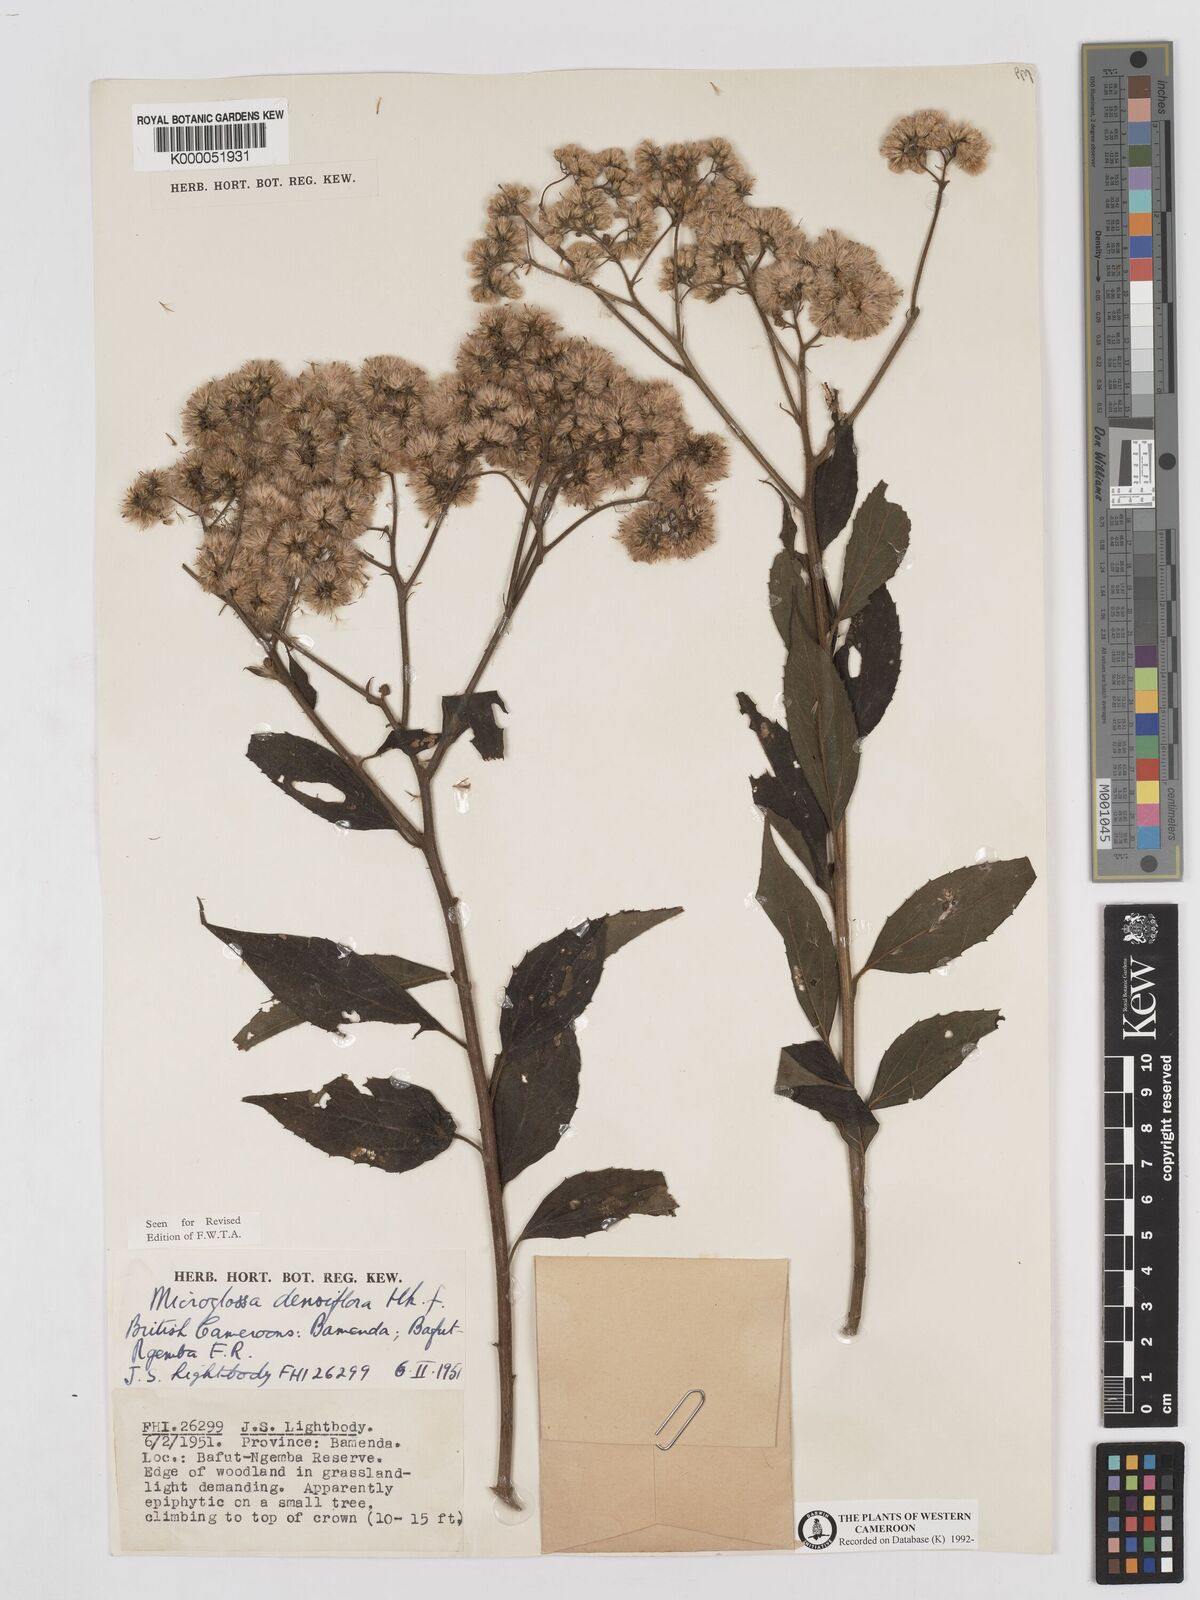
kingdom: Plantae
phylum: Tracheophyta
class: Magnoliopsida
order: Asterales
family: Asteraceae
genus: Microglossa
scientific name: Microglossa densiflora
